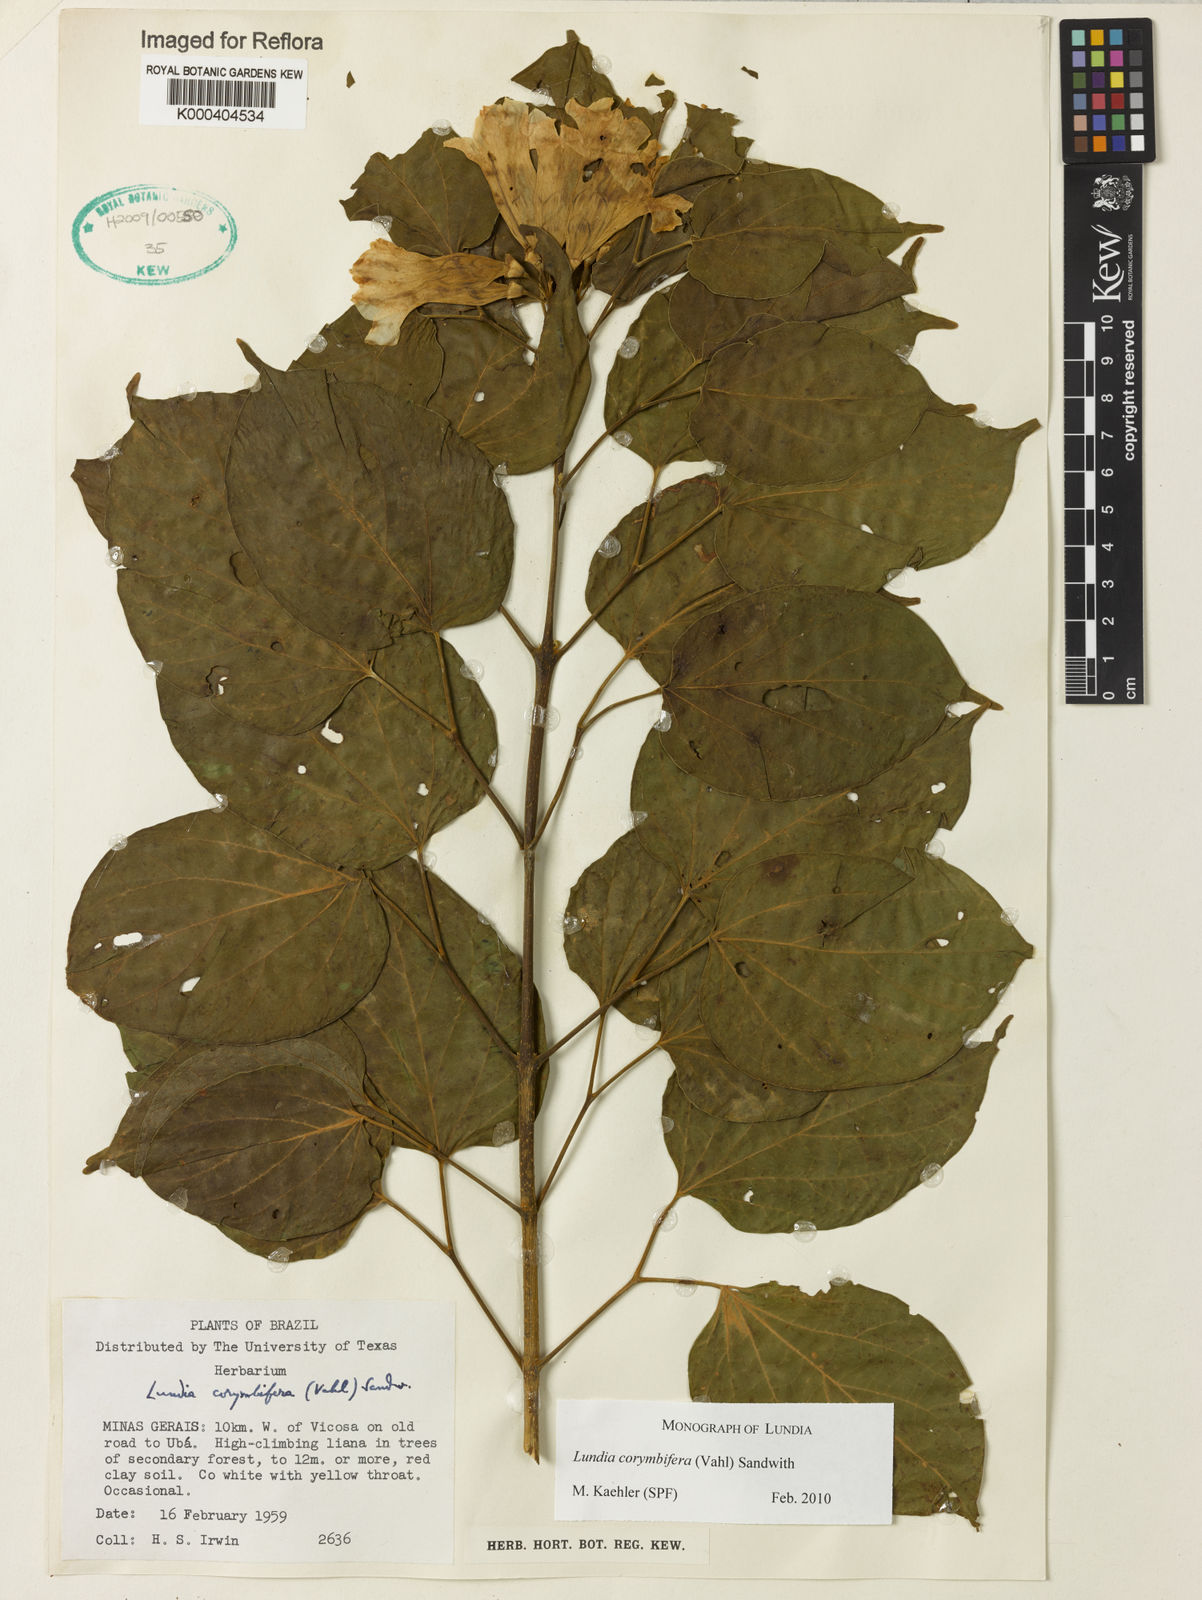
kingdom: Plantae
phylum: Tracheophyta
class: Magnoliopsida
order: Lamiales
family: Bignoniaceae
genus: Lundia
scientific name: Lundia corymbifera
